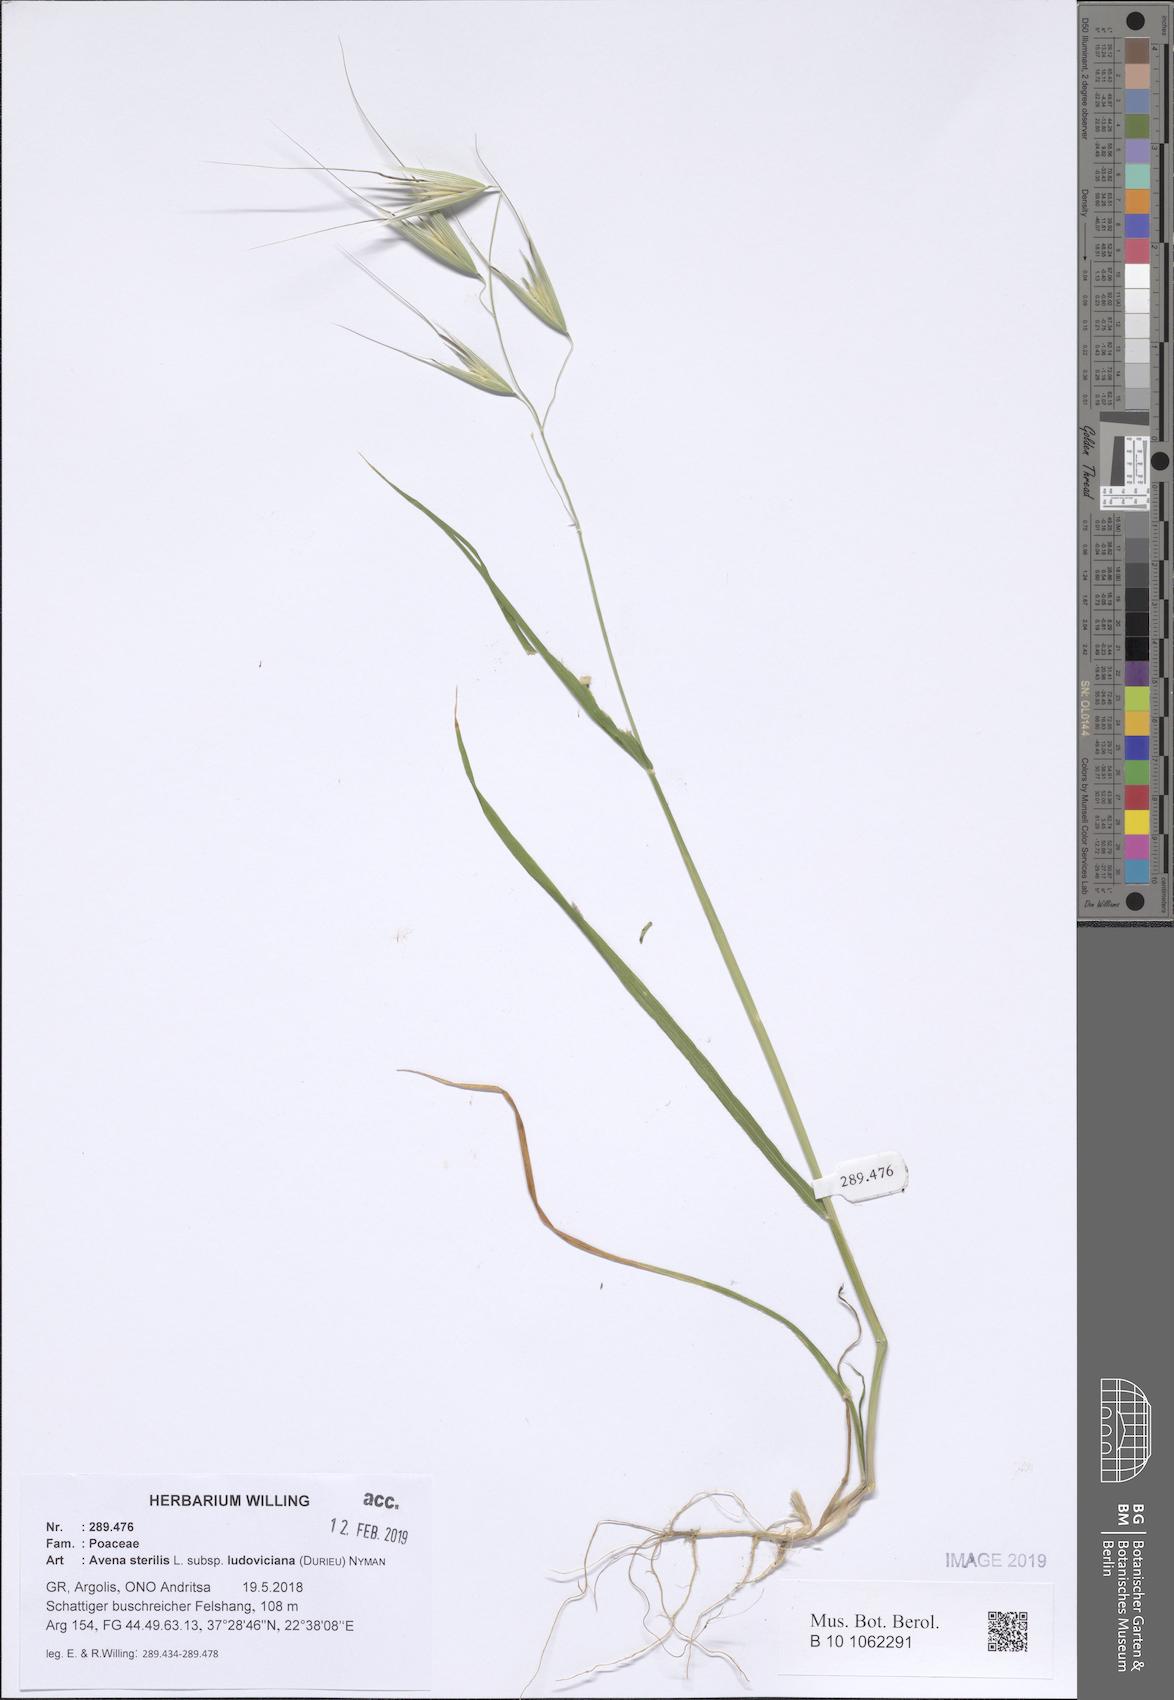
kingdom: Plantae
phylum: Tracheophyta
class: Liliopsida
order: Poales
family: Poaceae
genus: Avena
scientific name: Avena sterilis
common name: Animated oat
